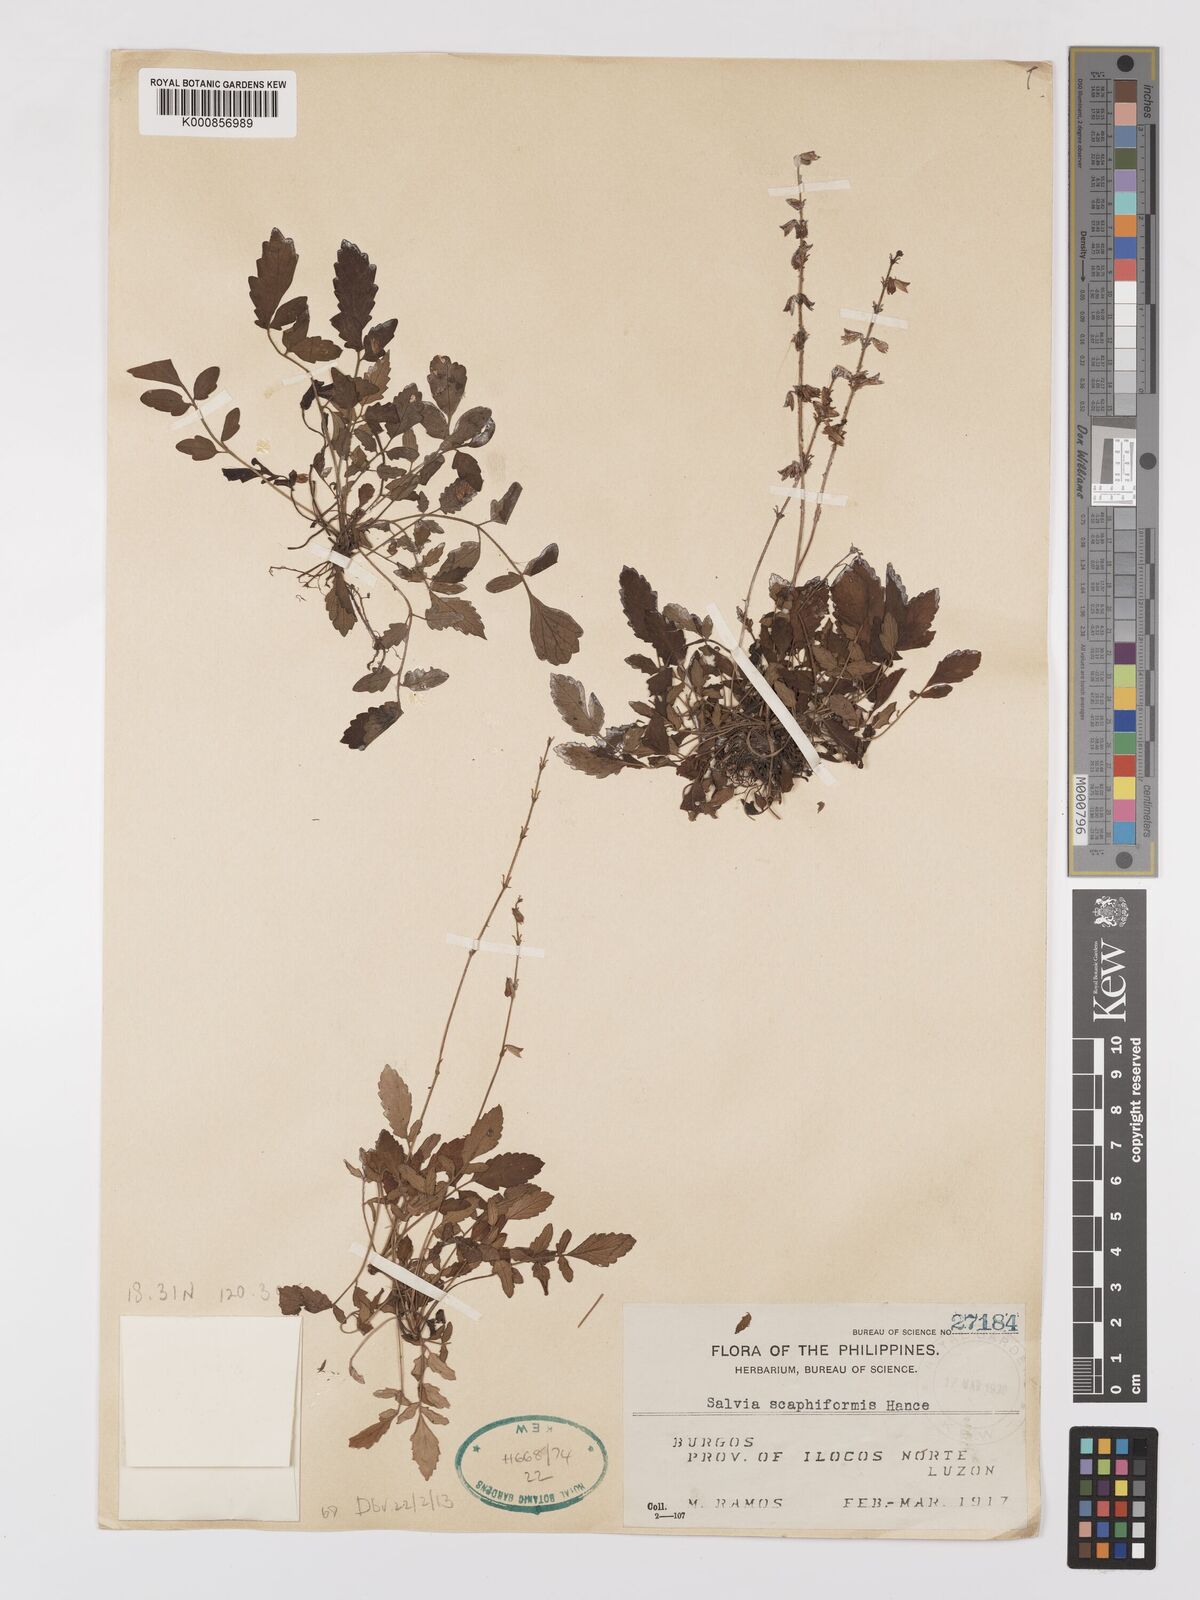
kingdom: Plantae
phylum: Tracheophyta
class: Magnoliopsida
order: Lamiales
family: Lamiaceae
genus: Salvia
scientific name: Salvia scapiformis
